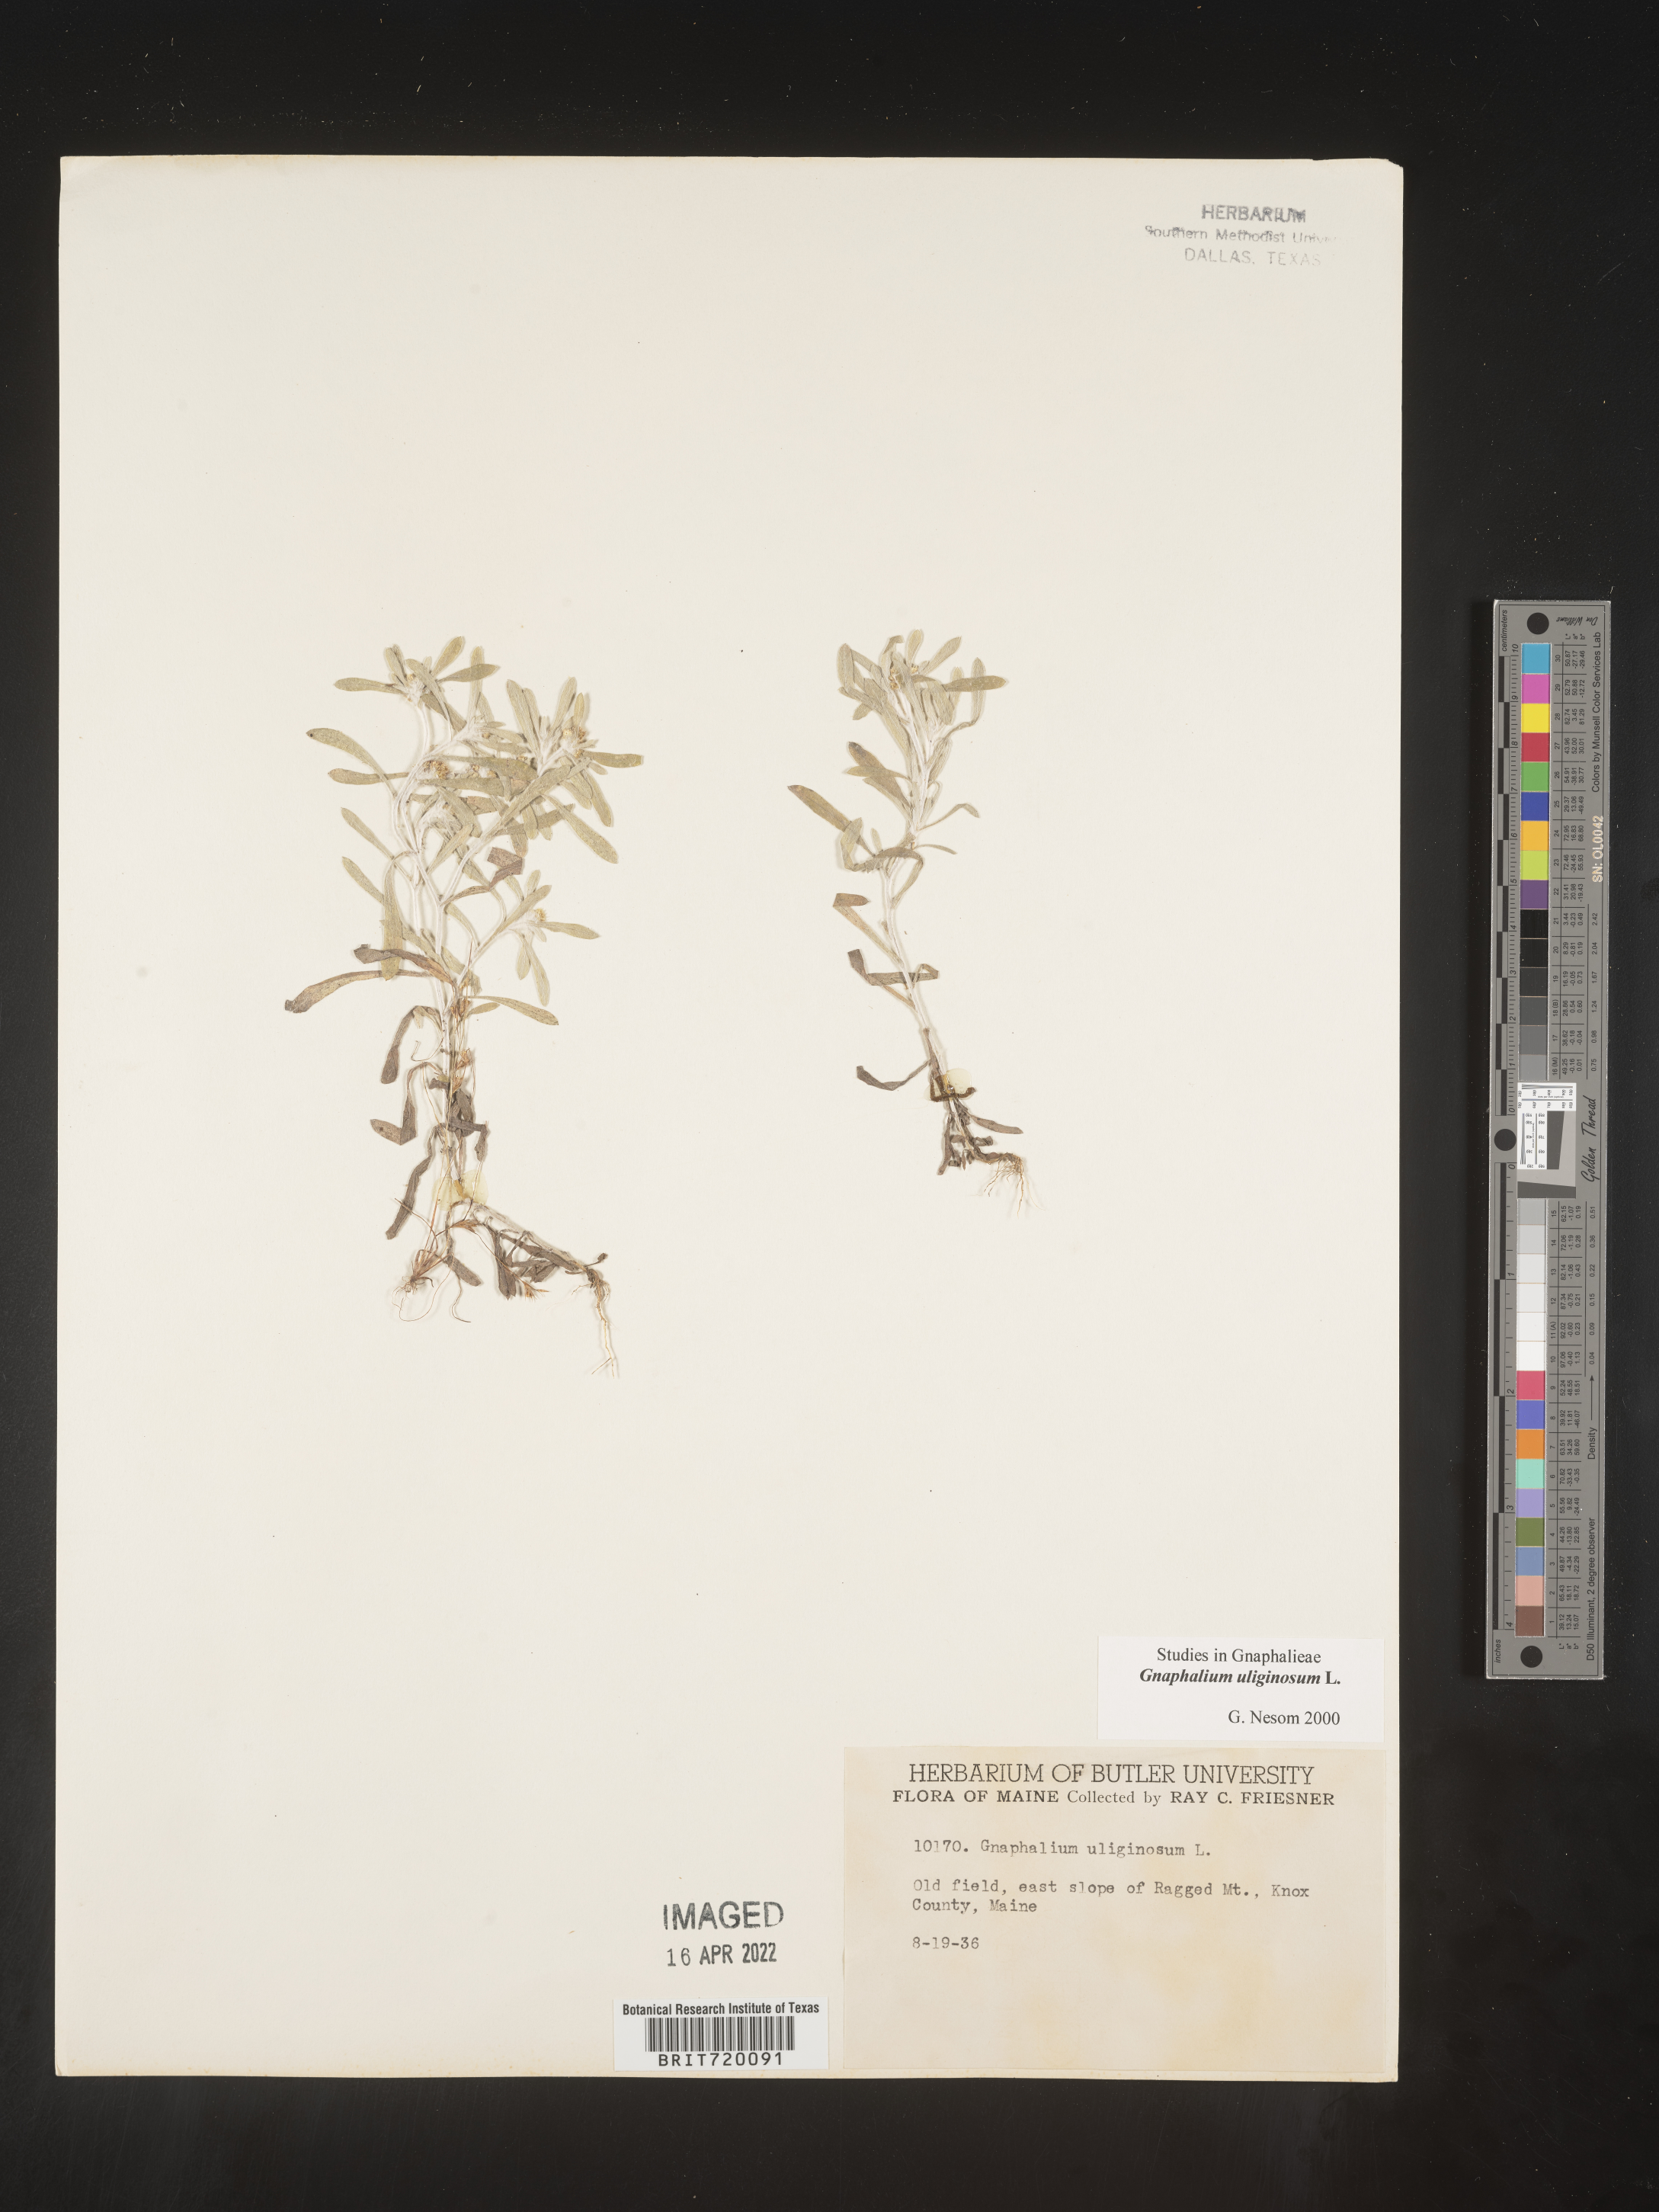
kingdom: Plantae
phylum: Tracheophyta
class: Magnoliopsida
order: Asterales
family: Asteraceae
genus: Gnaphalium
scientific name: Gnaphalium uliginosum
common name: Marsh cudweed
